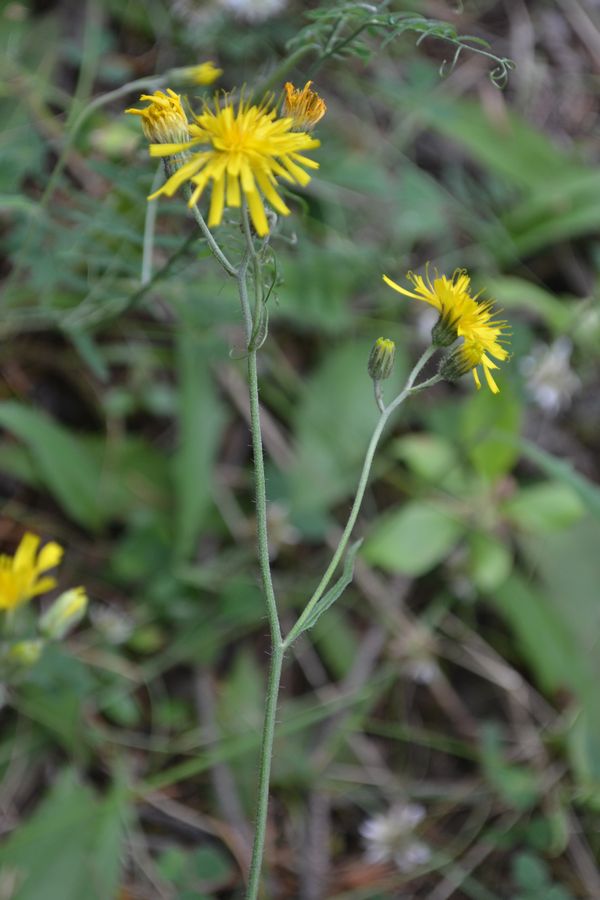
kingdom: Plantae
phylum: Tracheophyta
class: Magnoliopsida
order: Asterales
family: Asteraceae
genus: Hieracium
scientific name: Hieracium lachenalii
